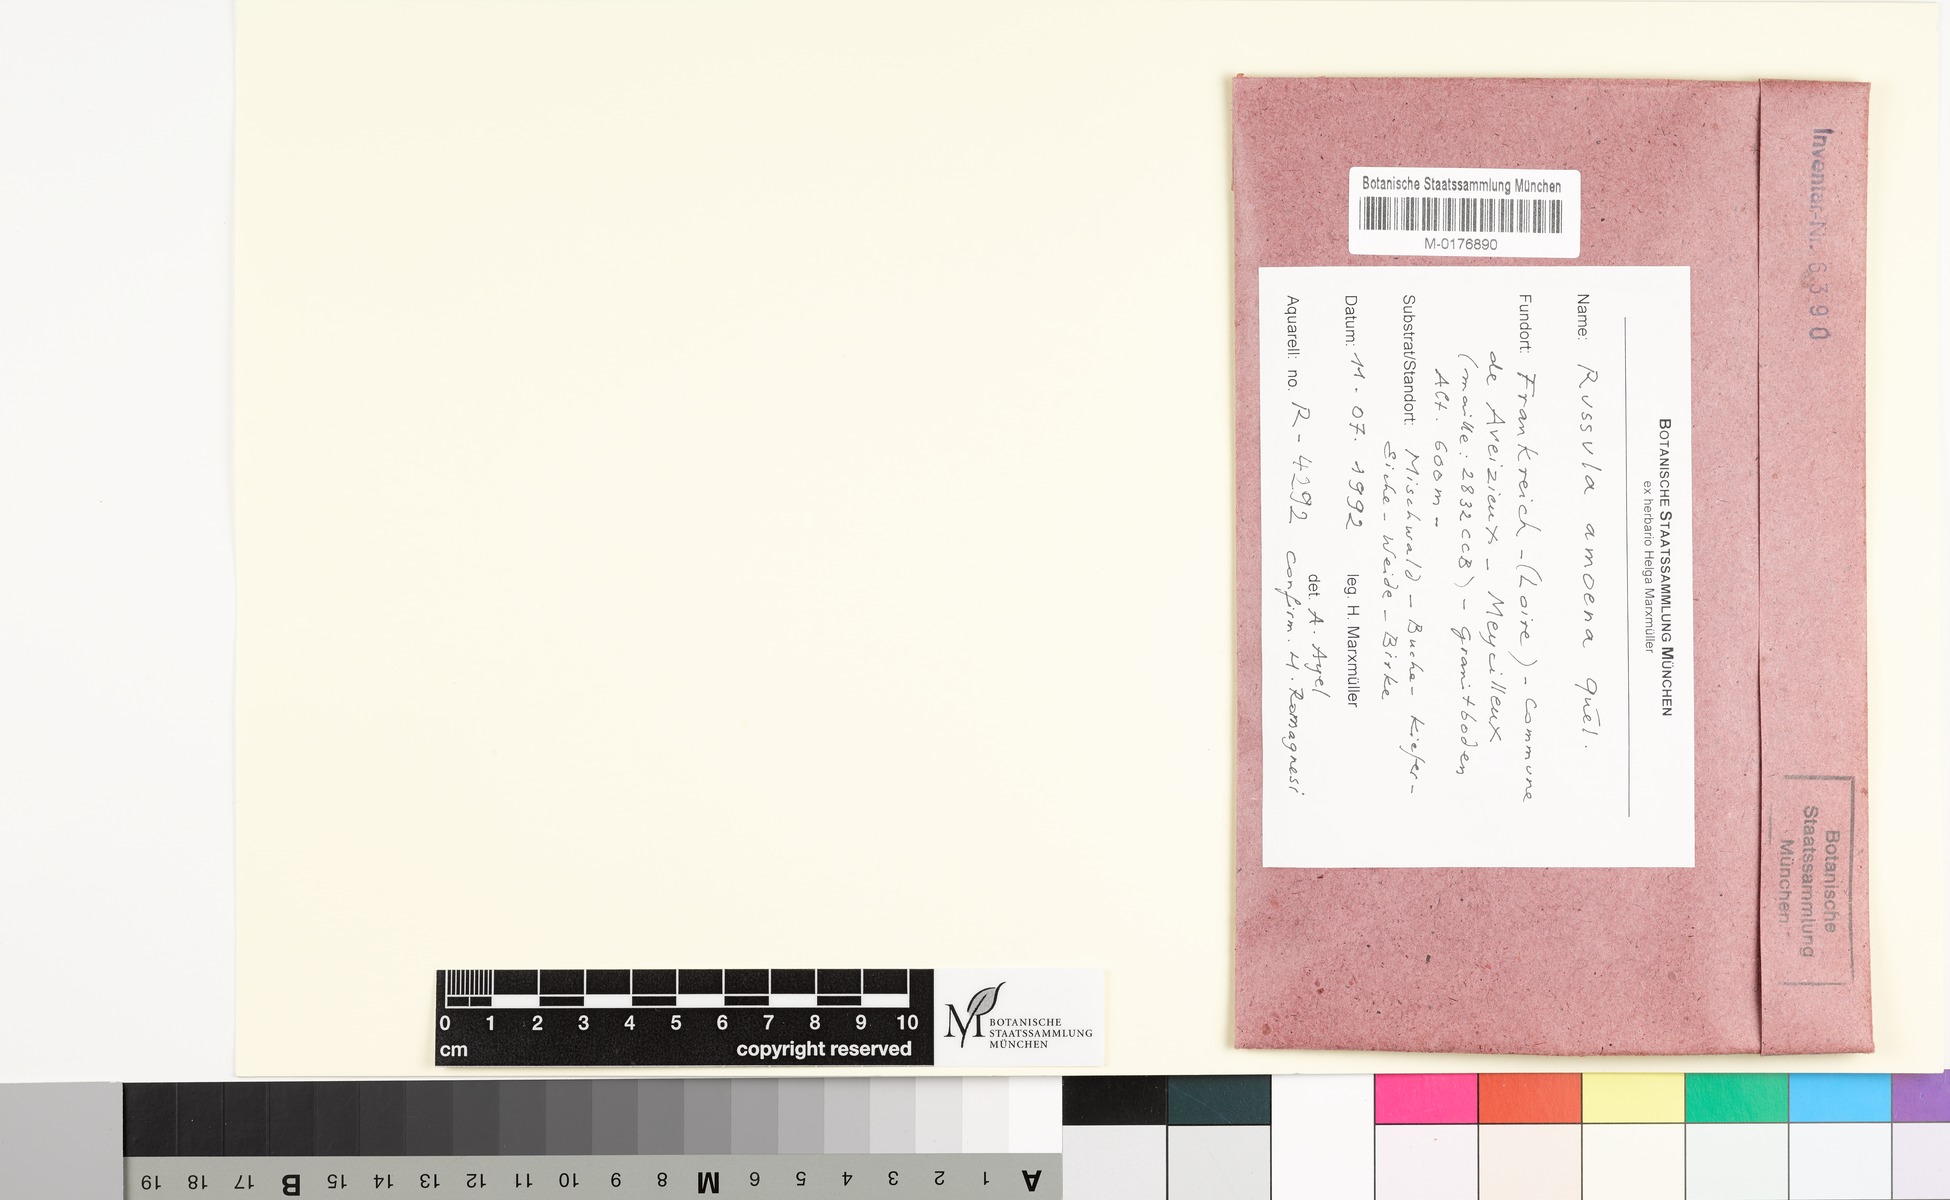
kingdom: Fungi
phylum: Basidiomycota
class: Agaricomycetes
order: Russulales
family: Russulaceae
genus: Russula
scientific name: Russula amoena
